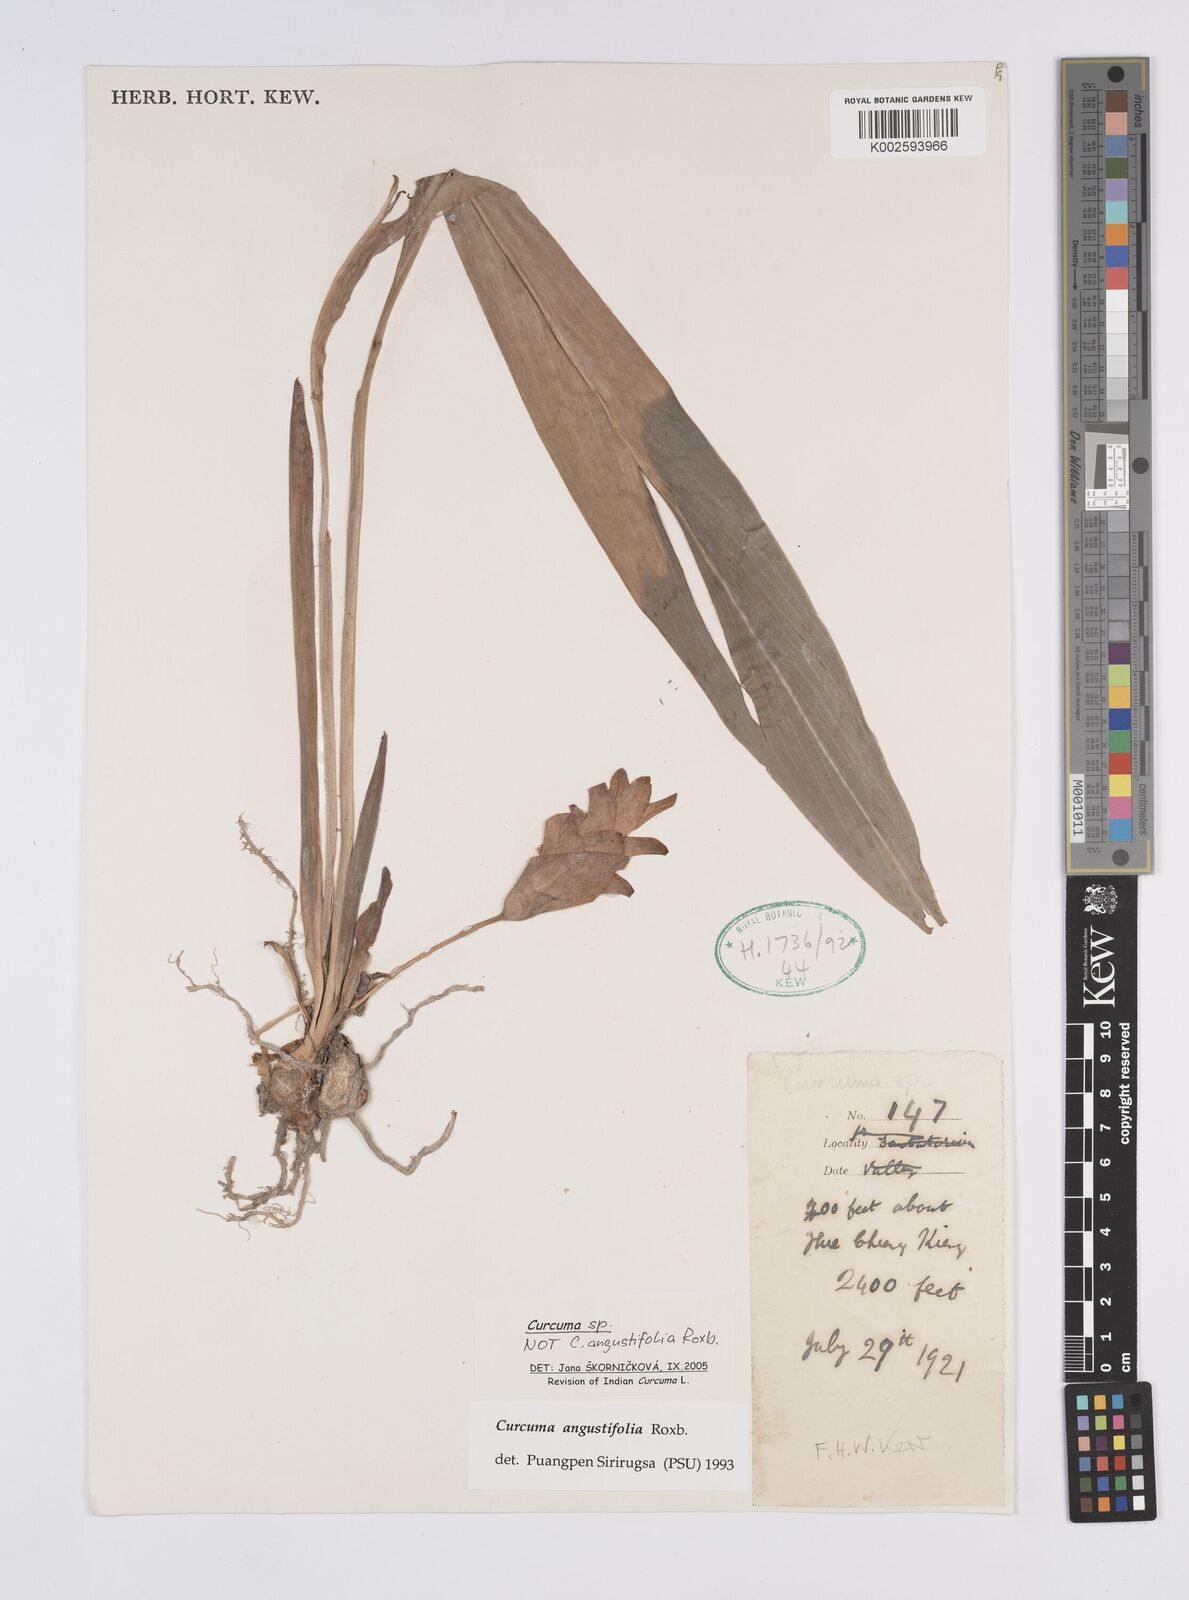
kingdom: Plantae
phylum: Tracheophyta
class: Liliopsida
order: Zingiberales
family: Zingiberaceae
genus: Curcuma
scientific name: Curcuma
